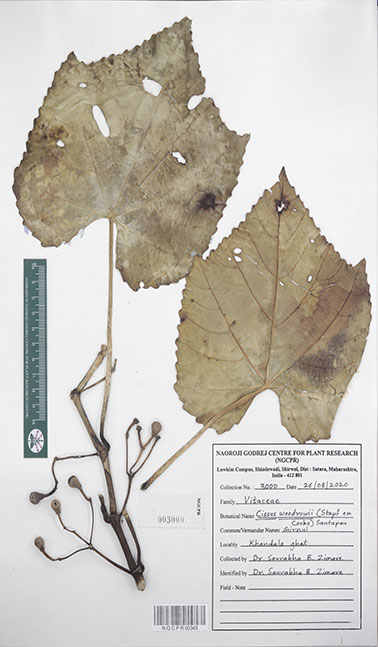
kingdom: Plantae
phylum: Tracheophyta
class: Magnoliopsida
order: Vitales
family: Vitaceae
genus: Cissus
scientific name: Cissus woodrowii
